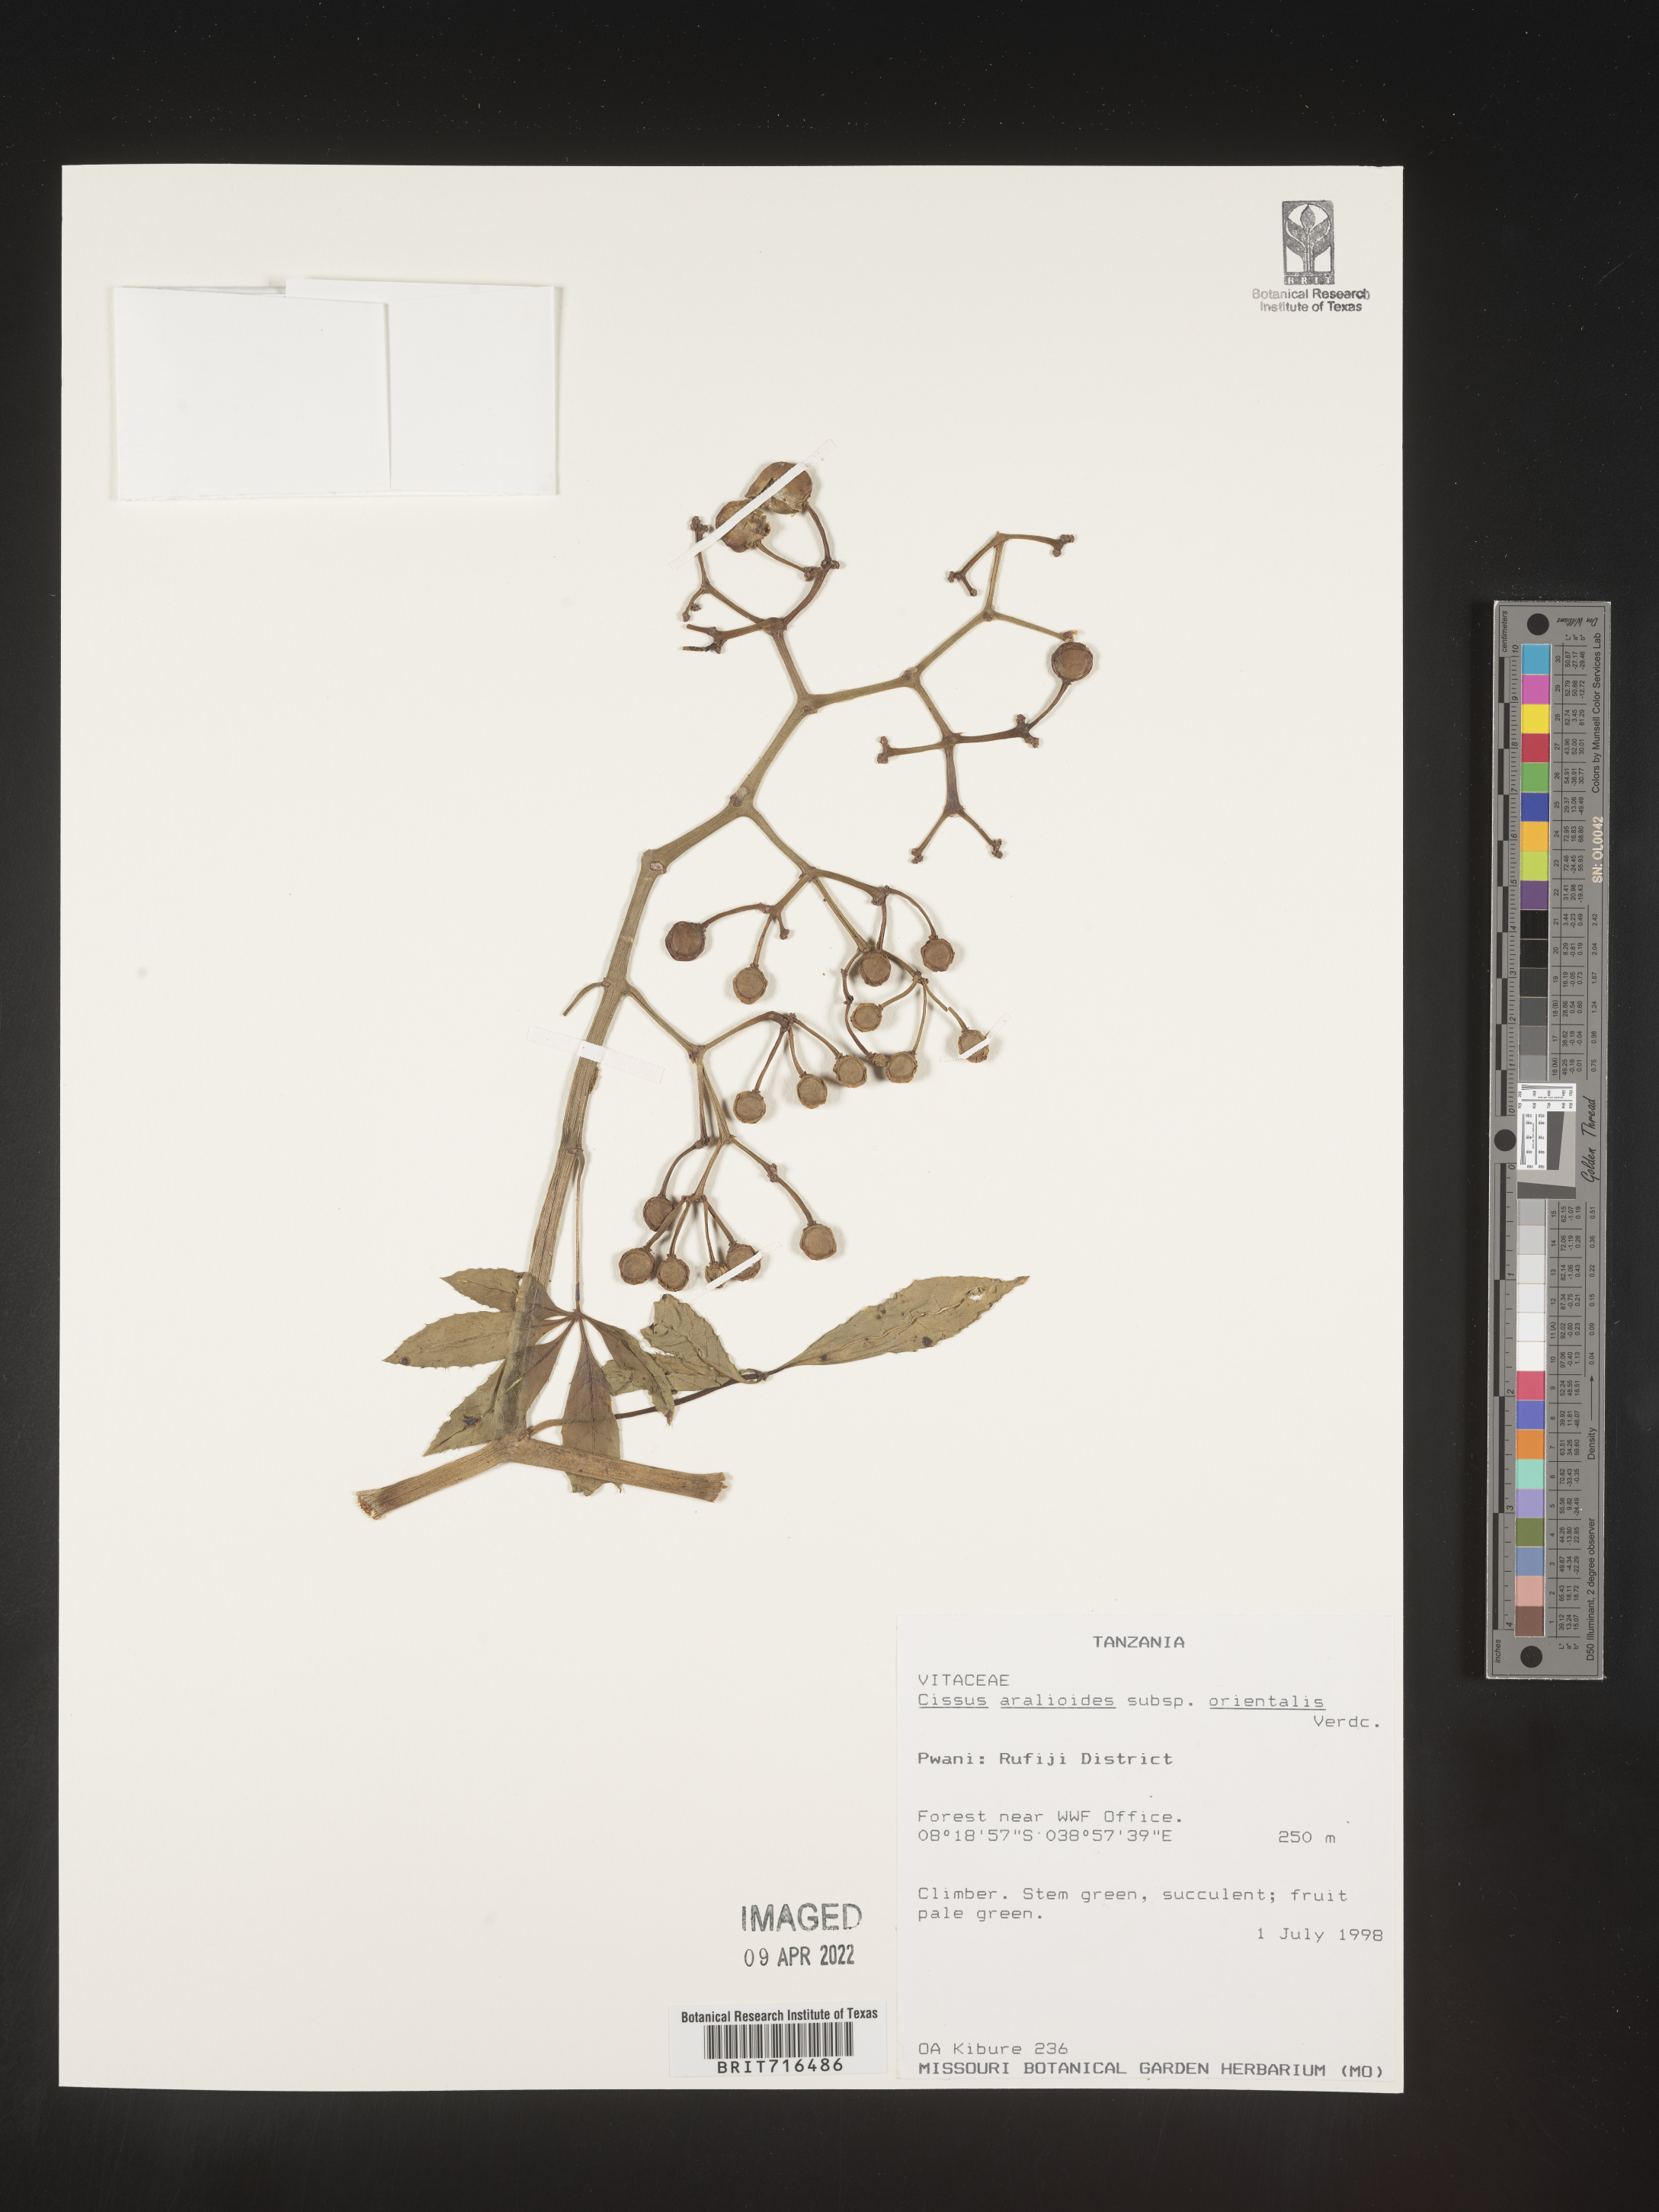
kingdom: Plantae
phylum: Tracheophyta
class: Magnoliopsida
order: Vitales
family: Vitaceae
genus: Cissus
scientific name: Cissus
